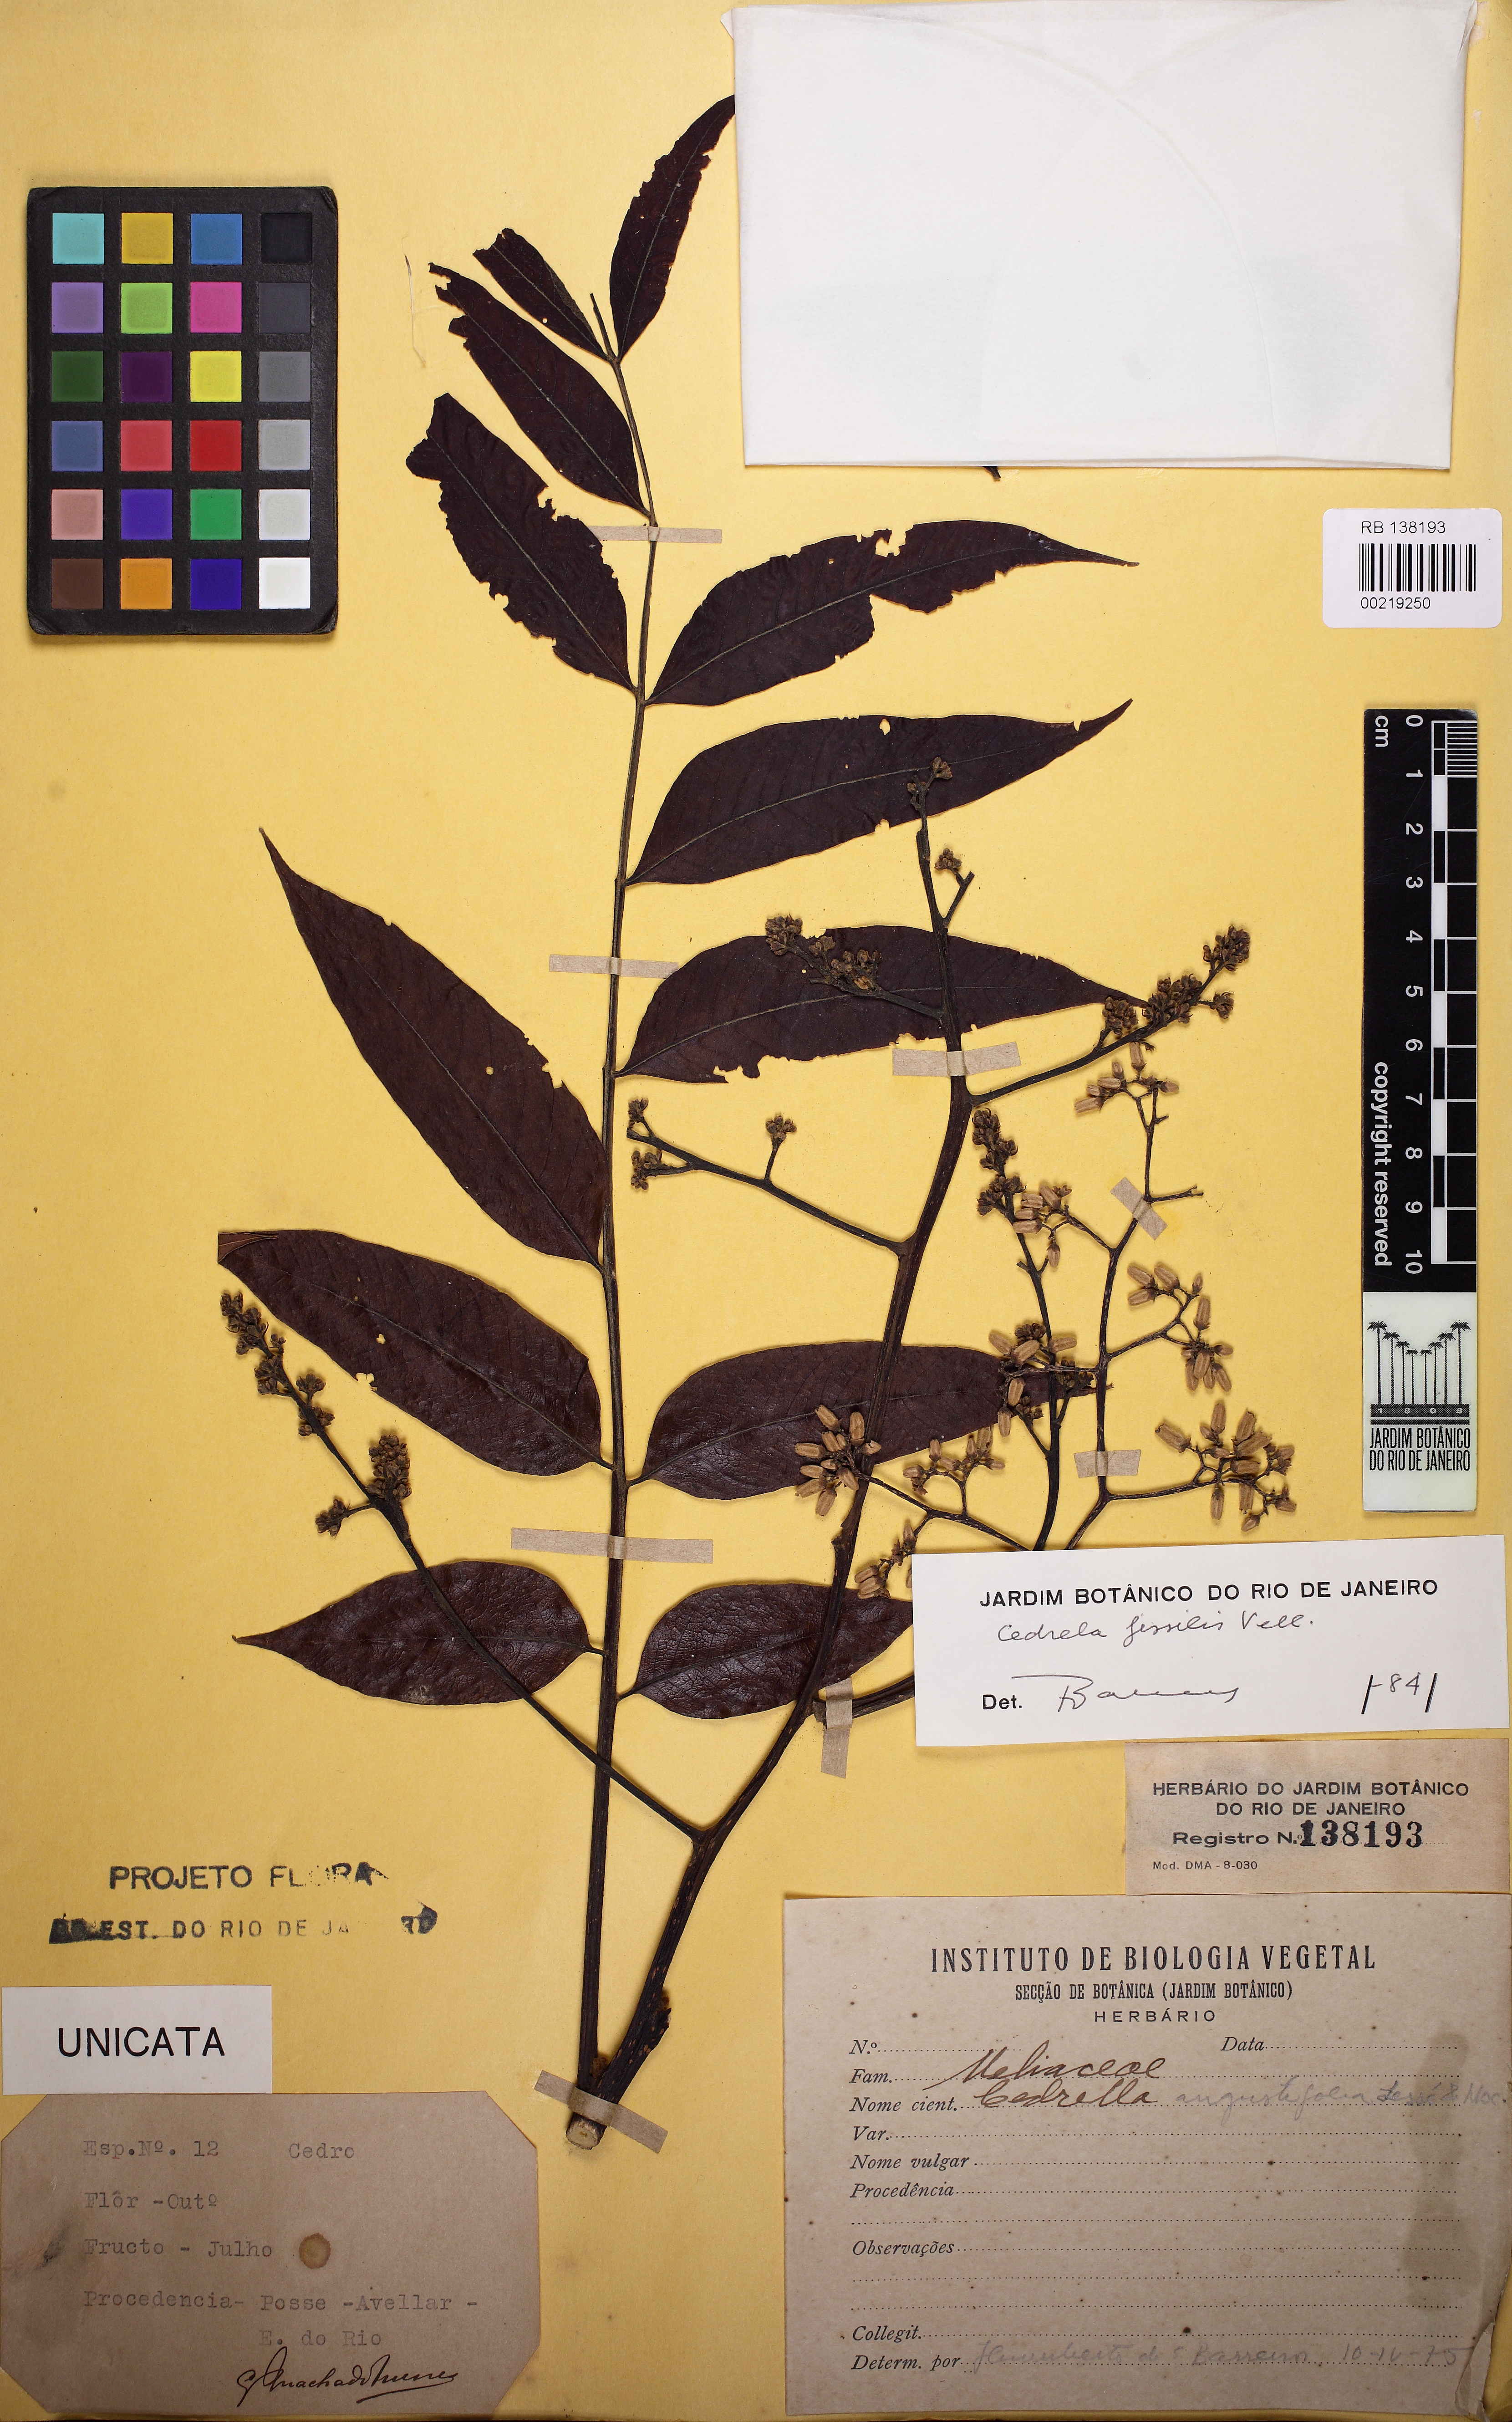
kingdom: Plantae
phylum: Tracheophyta
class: Magnoliopsida
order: Sapindales
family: Meliaceae
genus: Cedrela
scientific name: Cedrela fissilis
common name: Argentine cedar
